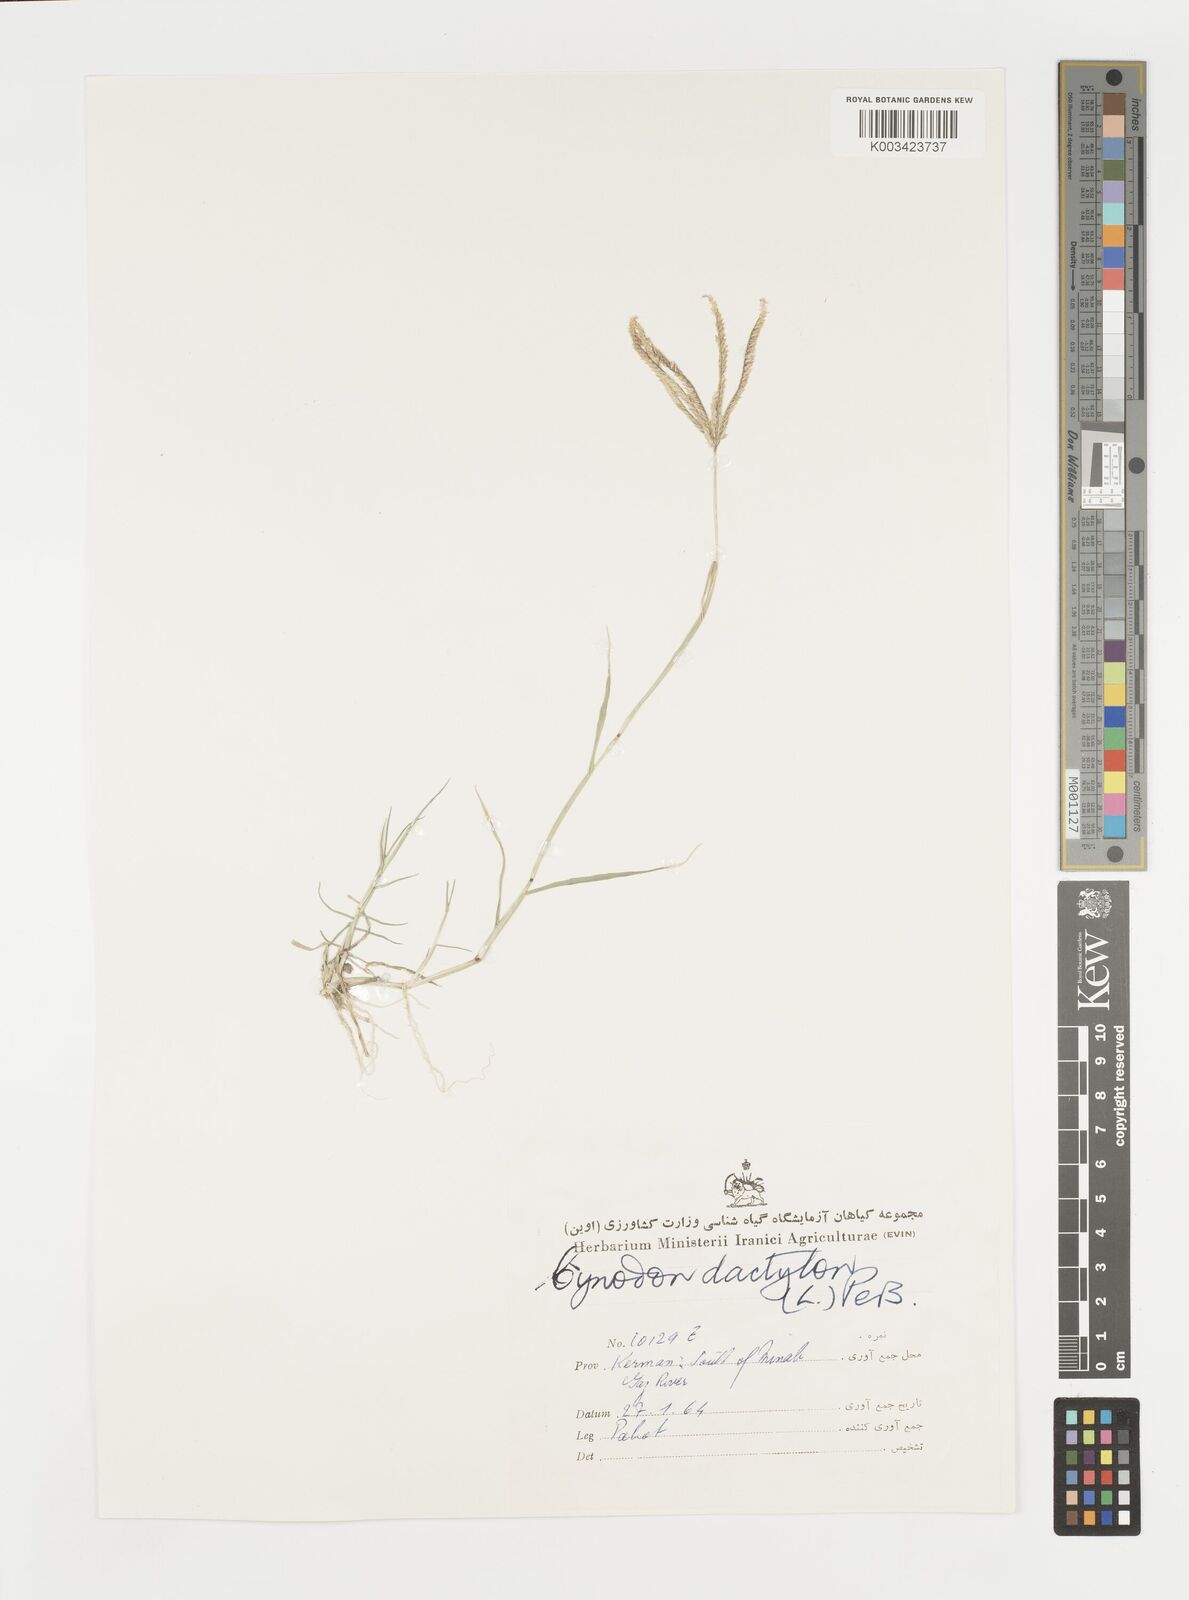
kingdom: Plantae
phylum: Tracheophyta
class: Liliopsida
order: Poales
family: Poaceae
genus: Cynodon
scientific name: Cynodon dactylon
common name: Bermuda grass
